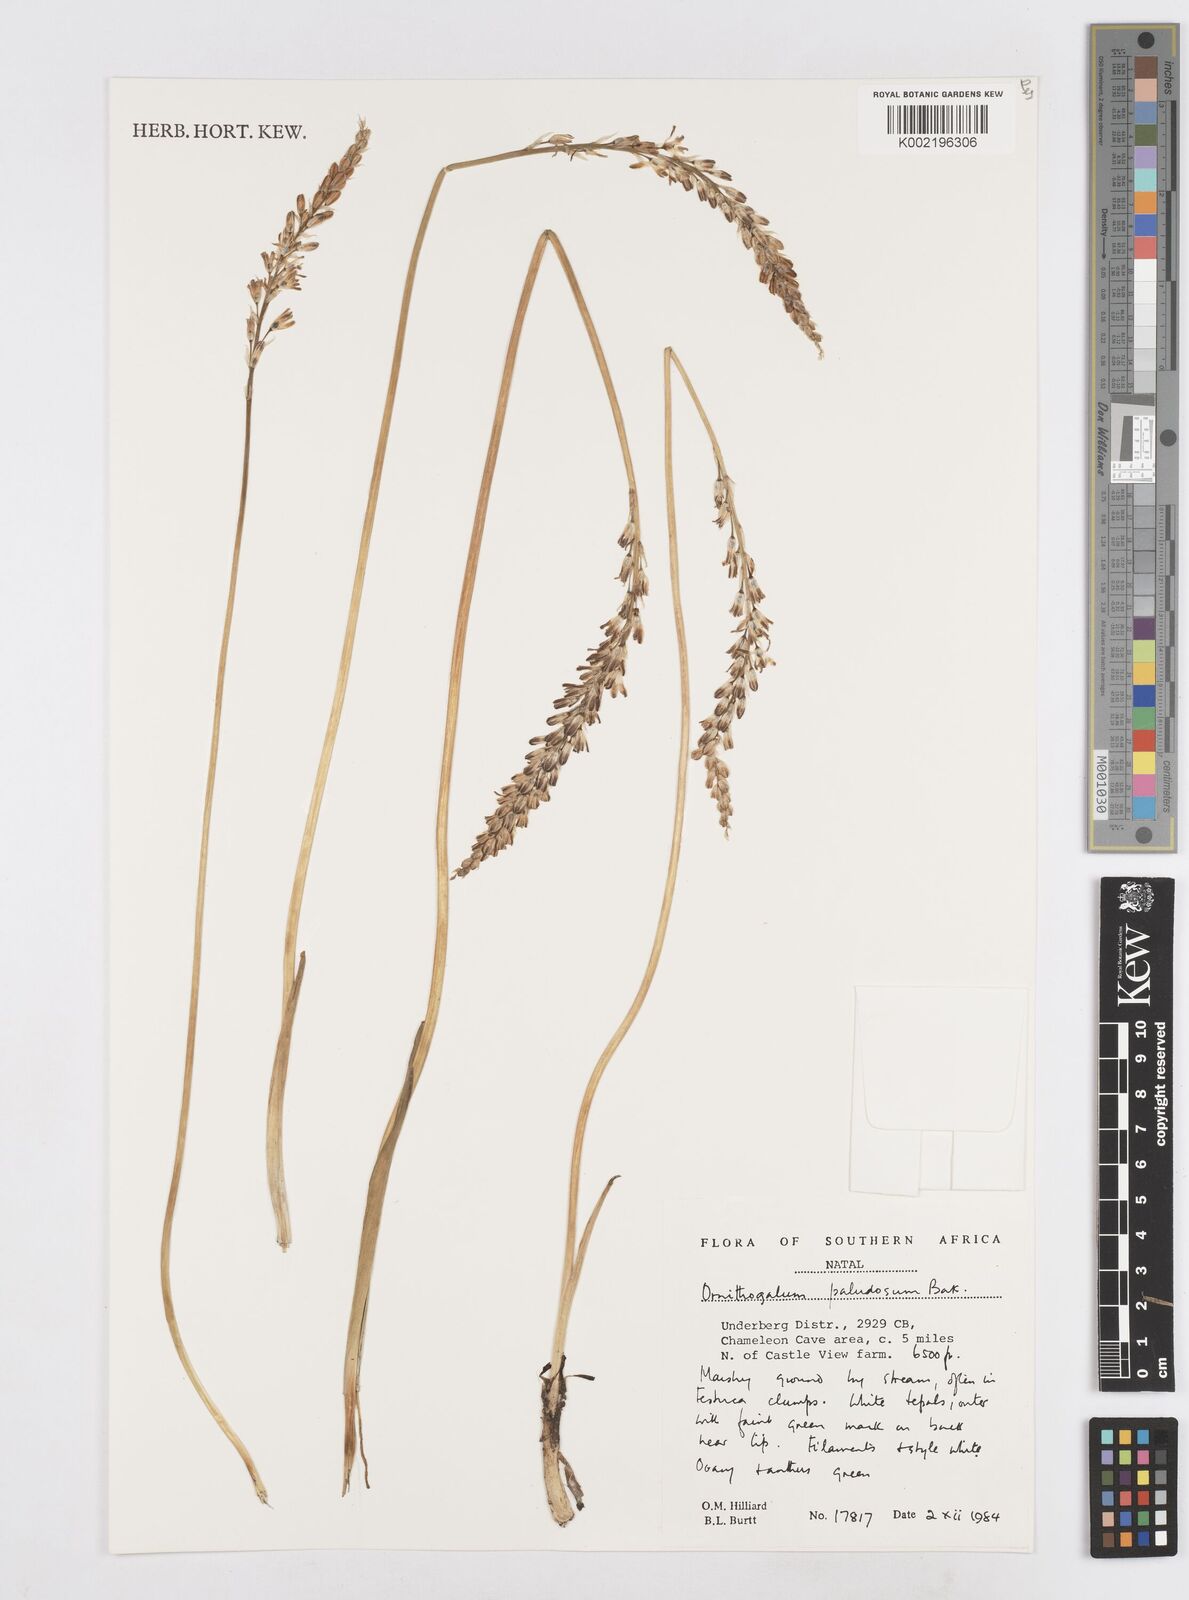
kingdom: Plantae
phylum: Tracheophyta
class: Liliopsida
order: Asparagales
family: Asparagaceae
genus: Ornithogalum
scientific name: Ornithogalum paludosum
